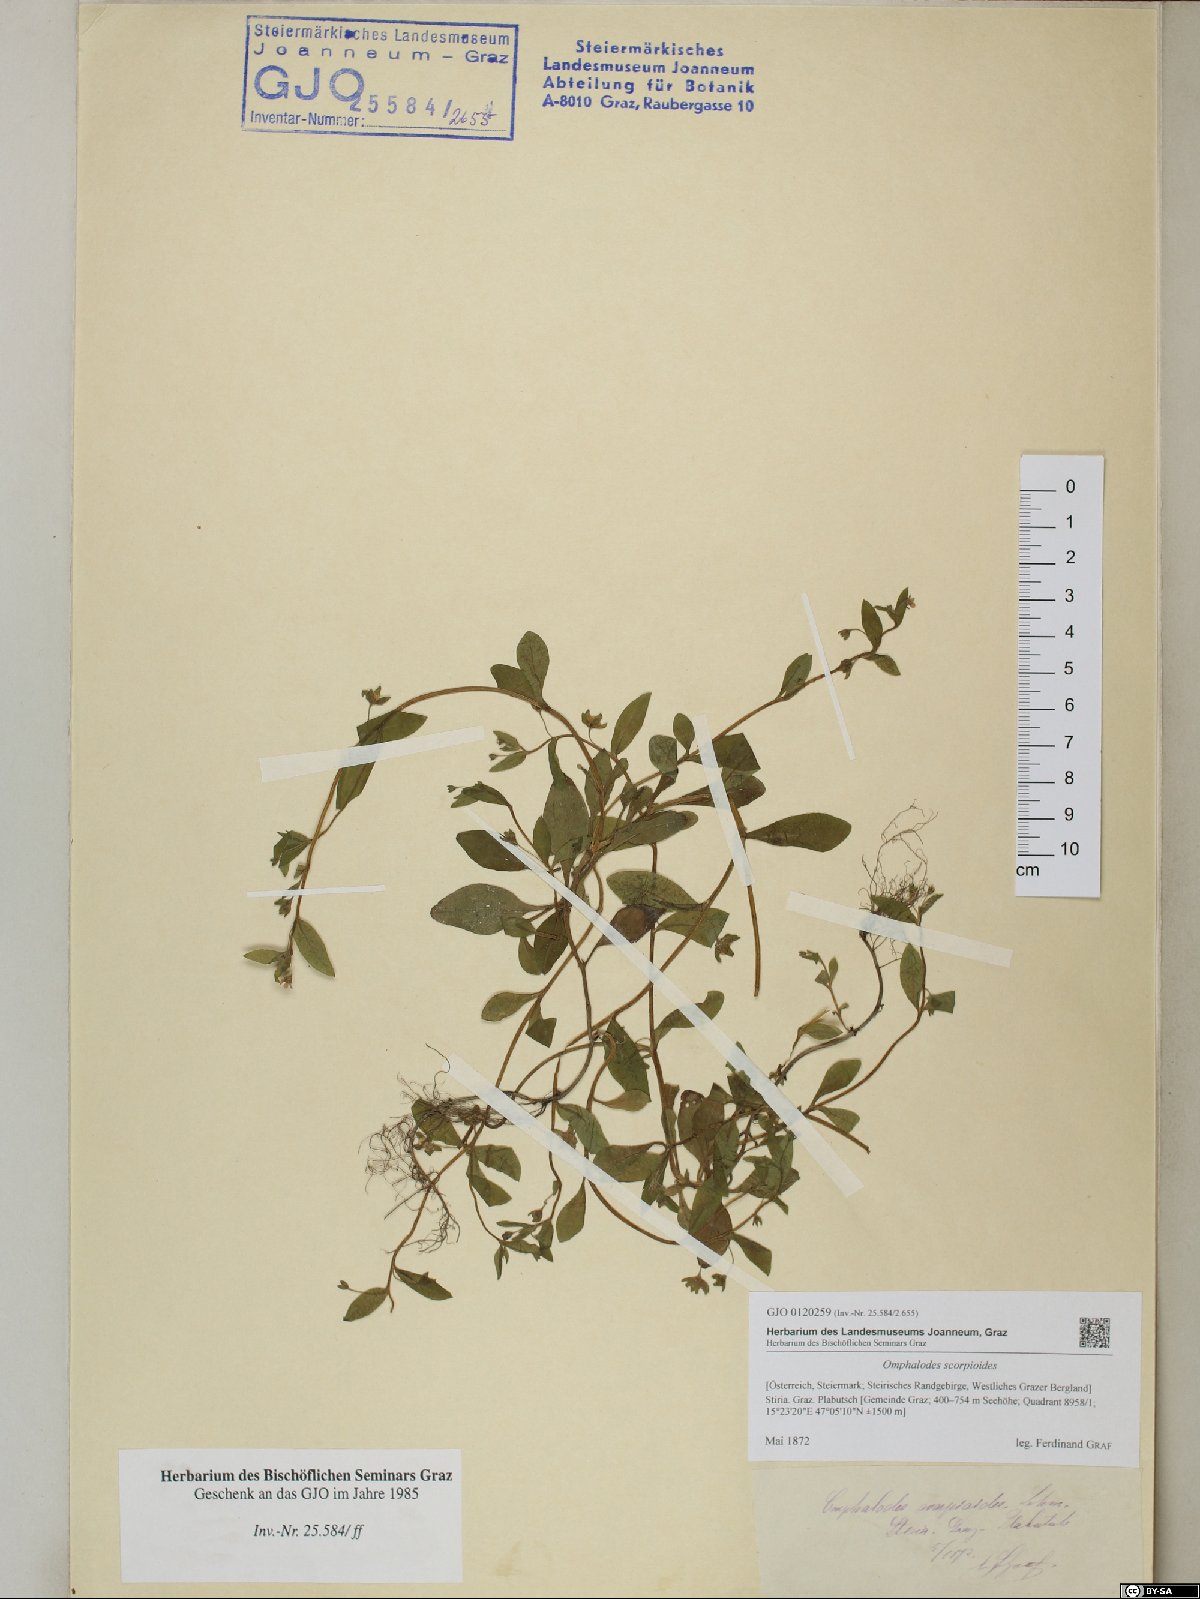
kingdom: Plantae
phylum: Tracheophyta
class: Magnoliopsida
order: Boraginales
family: Boraginaceae
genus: Memoremea
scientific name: Memoremea scorpioides
